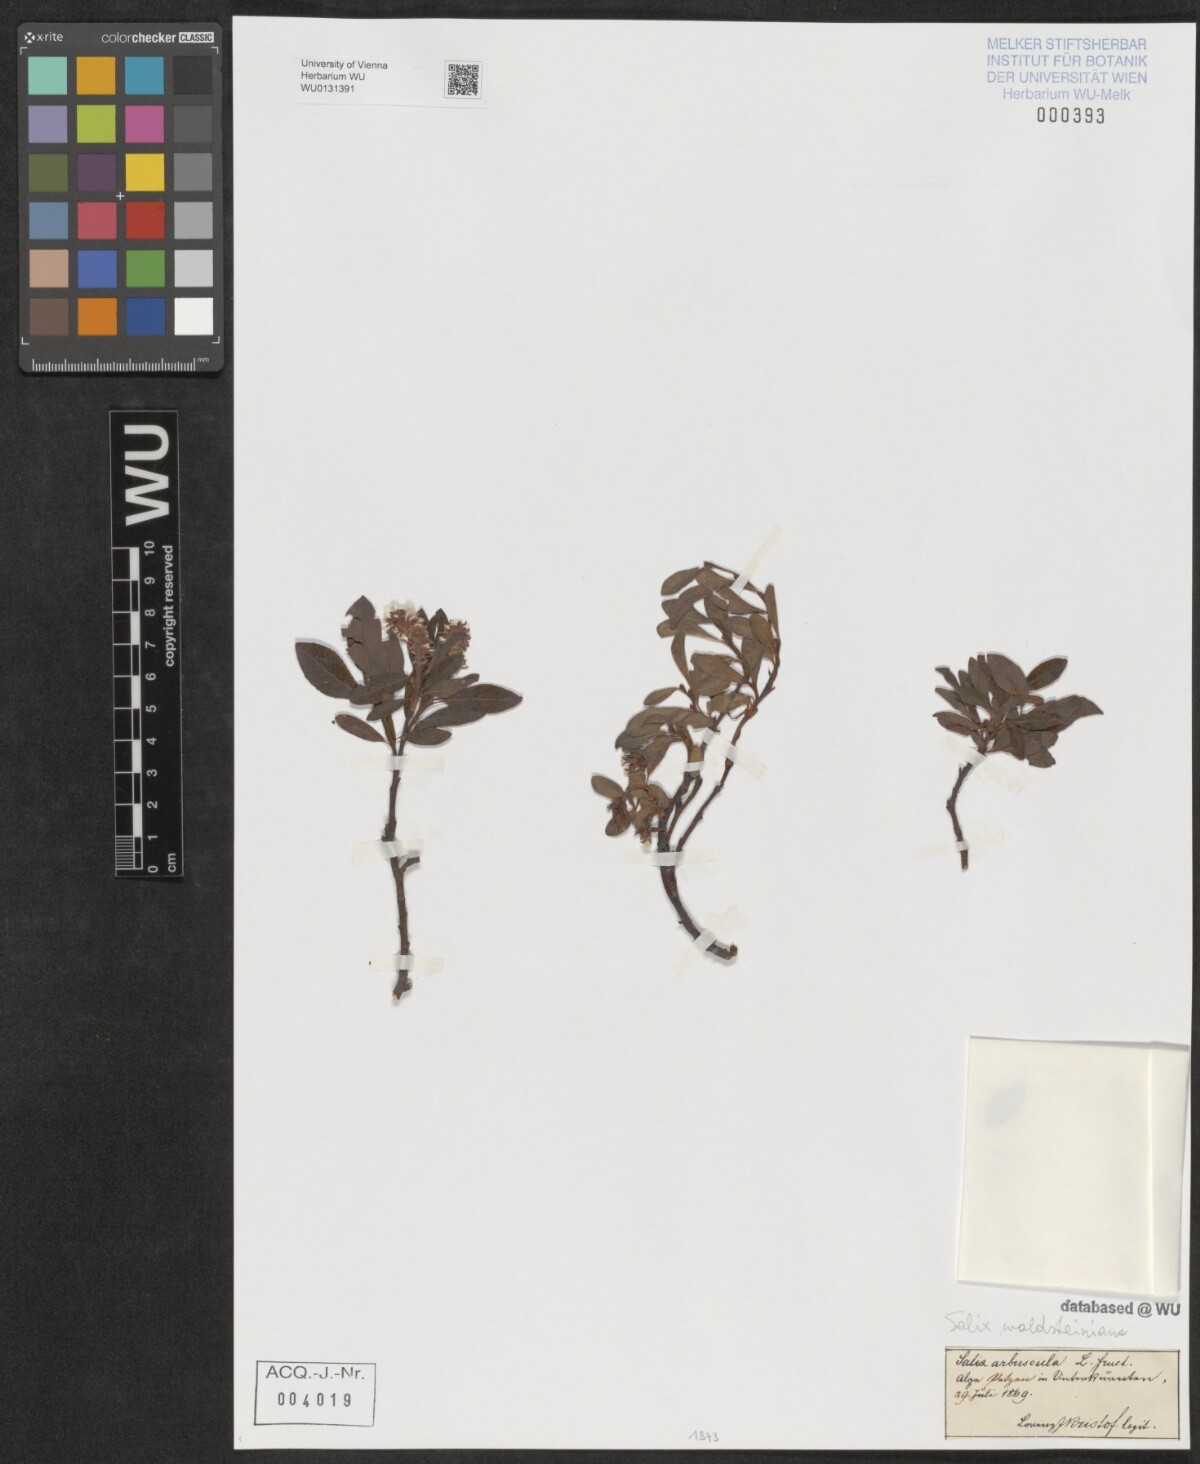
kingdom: Plantae
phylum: Tracheophyta
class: Magnoliopsida
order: Malpighiales
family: Salicaceae
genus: Salix
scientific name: Salix waldsteiniana
